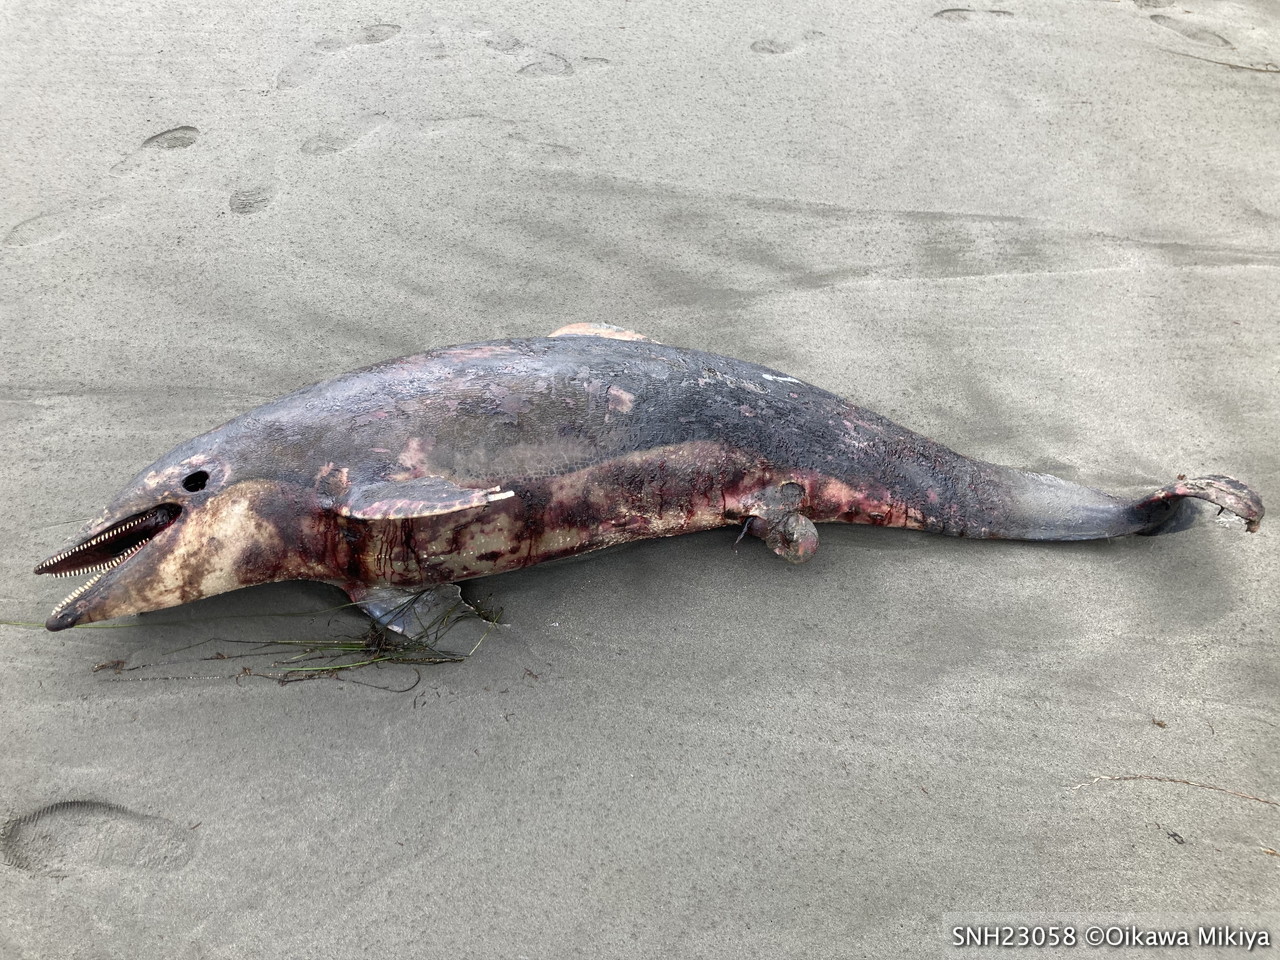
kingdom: Animalia
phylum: Chordata
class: Mammalia
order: Cetacea
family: Delphinidae
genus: Lagenorhynchus
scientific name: Lagenorhynchus obliquidens
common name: Pacific white-sided dolphin
